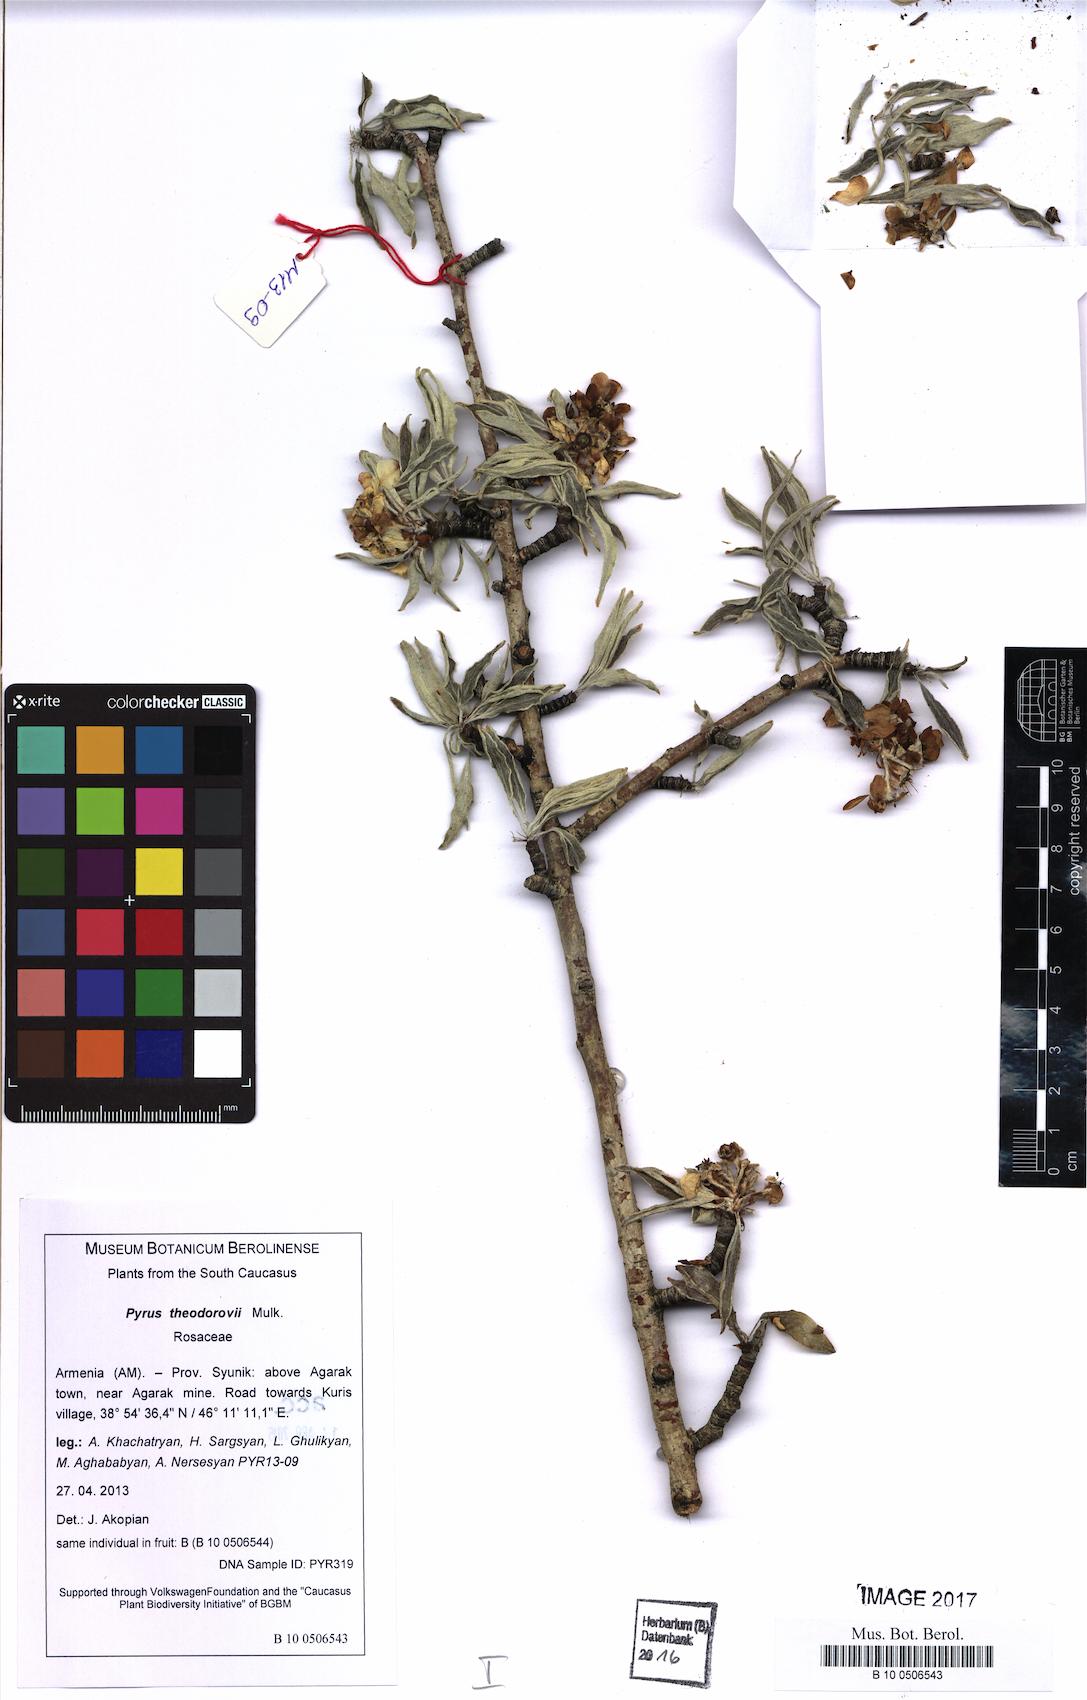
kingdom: Plantae
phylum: Tracheophyta
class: Magnoliopsida
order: Rosales
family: Rosaceae
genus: Pyrus
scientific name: Pyrus theodorovii
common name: Teodorov's pear
